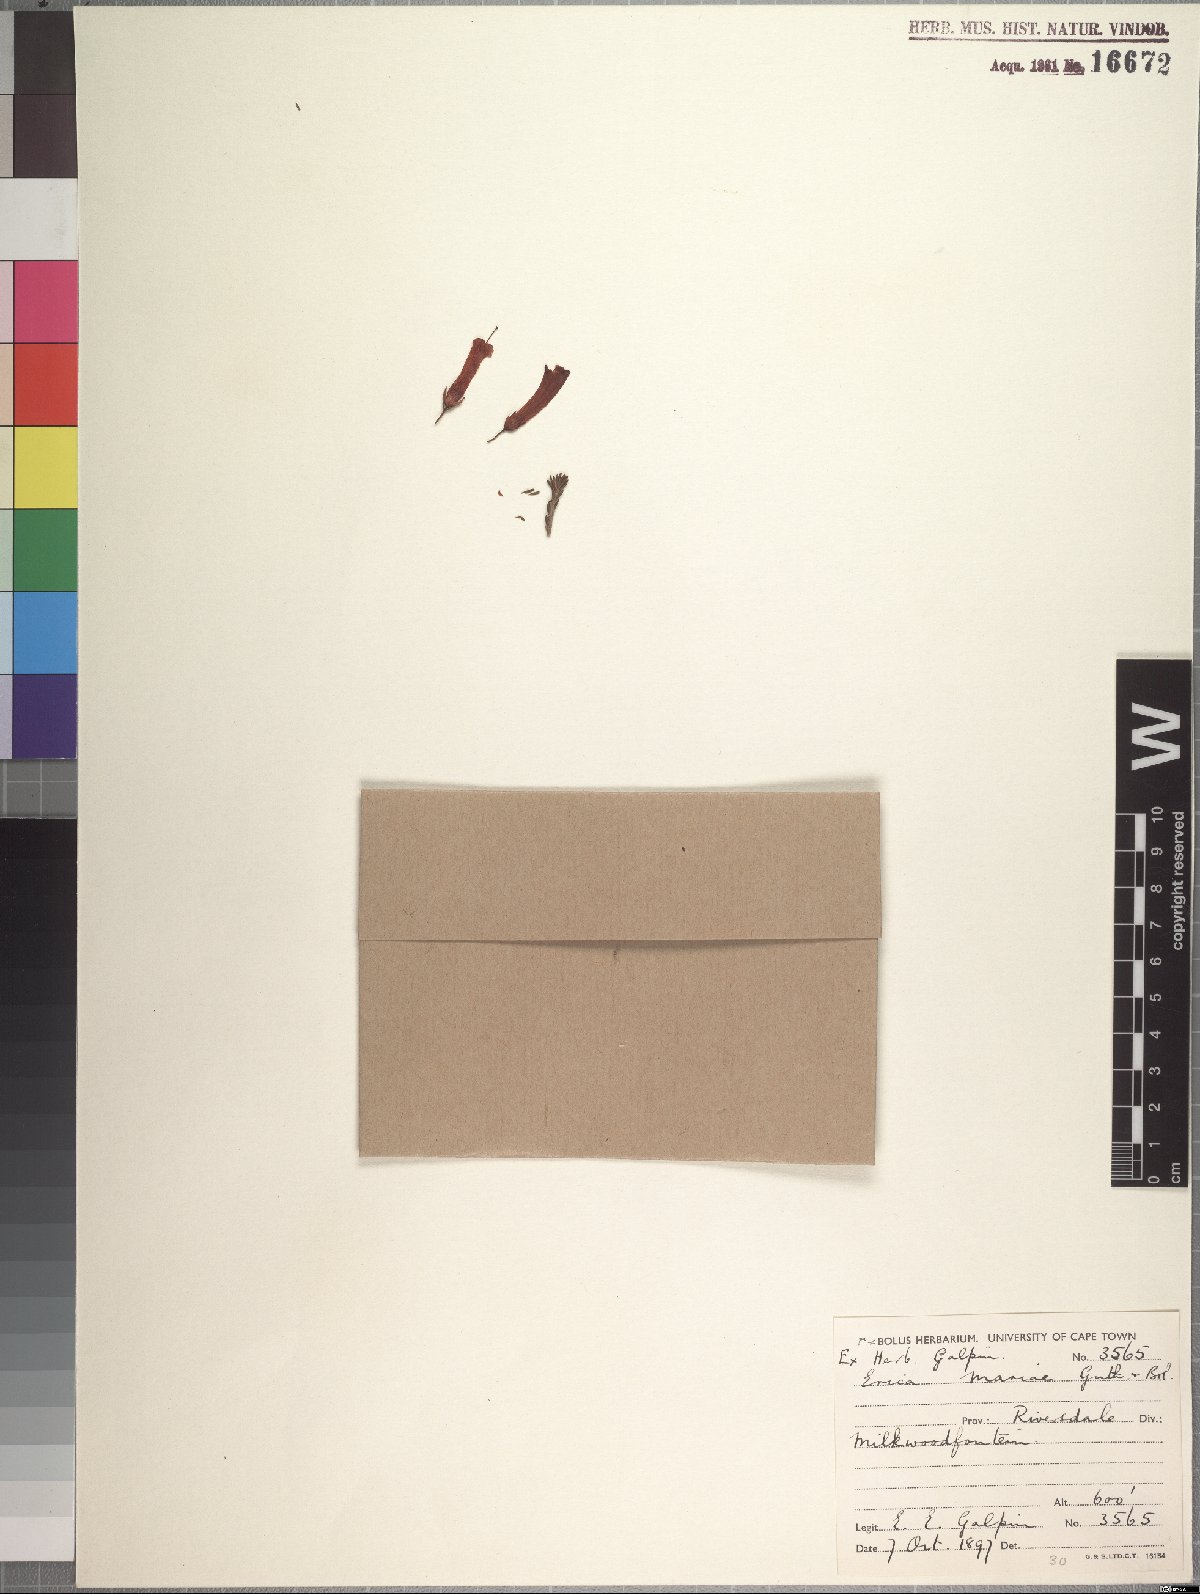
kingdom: Plantae
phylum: Tracheophyta
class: Magnoliopsida
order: Ericales
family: Ericaceae
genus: Erica
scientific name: Erica regia
